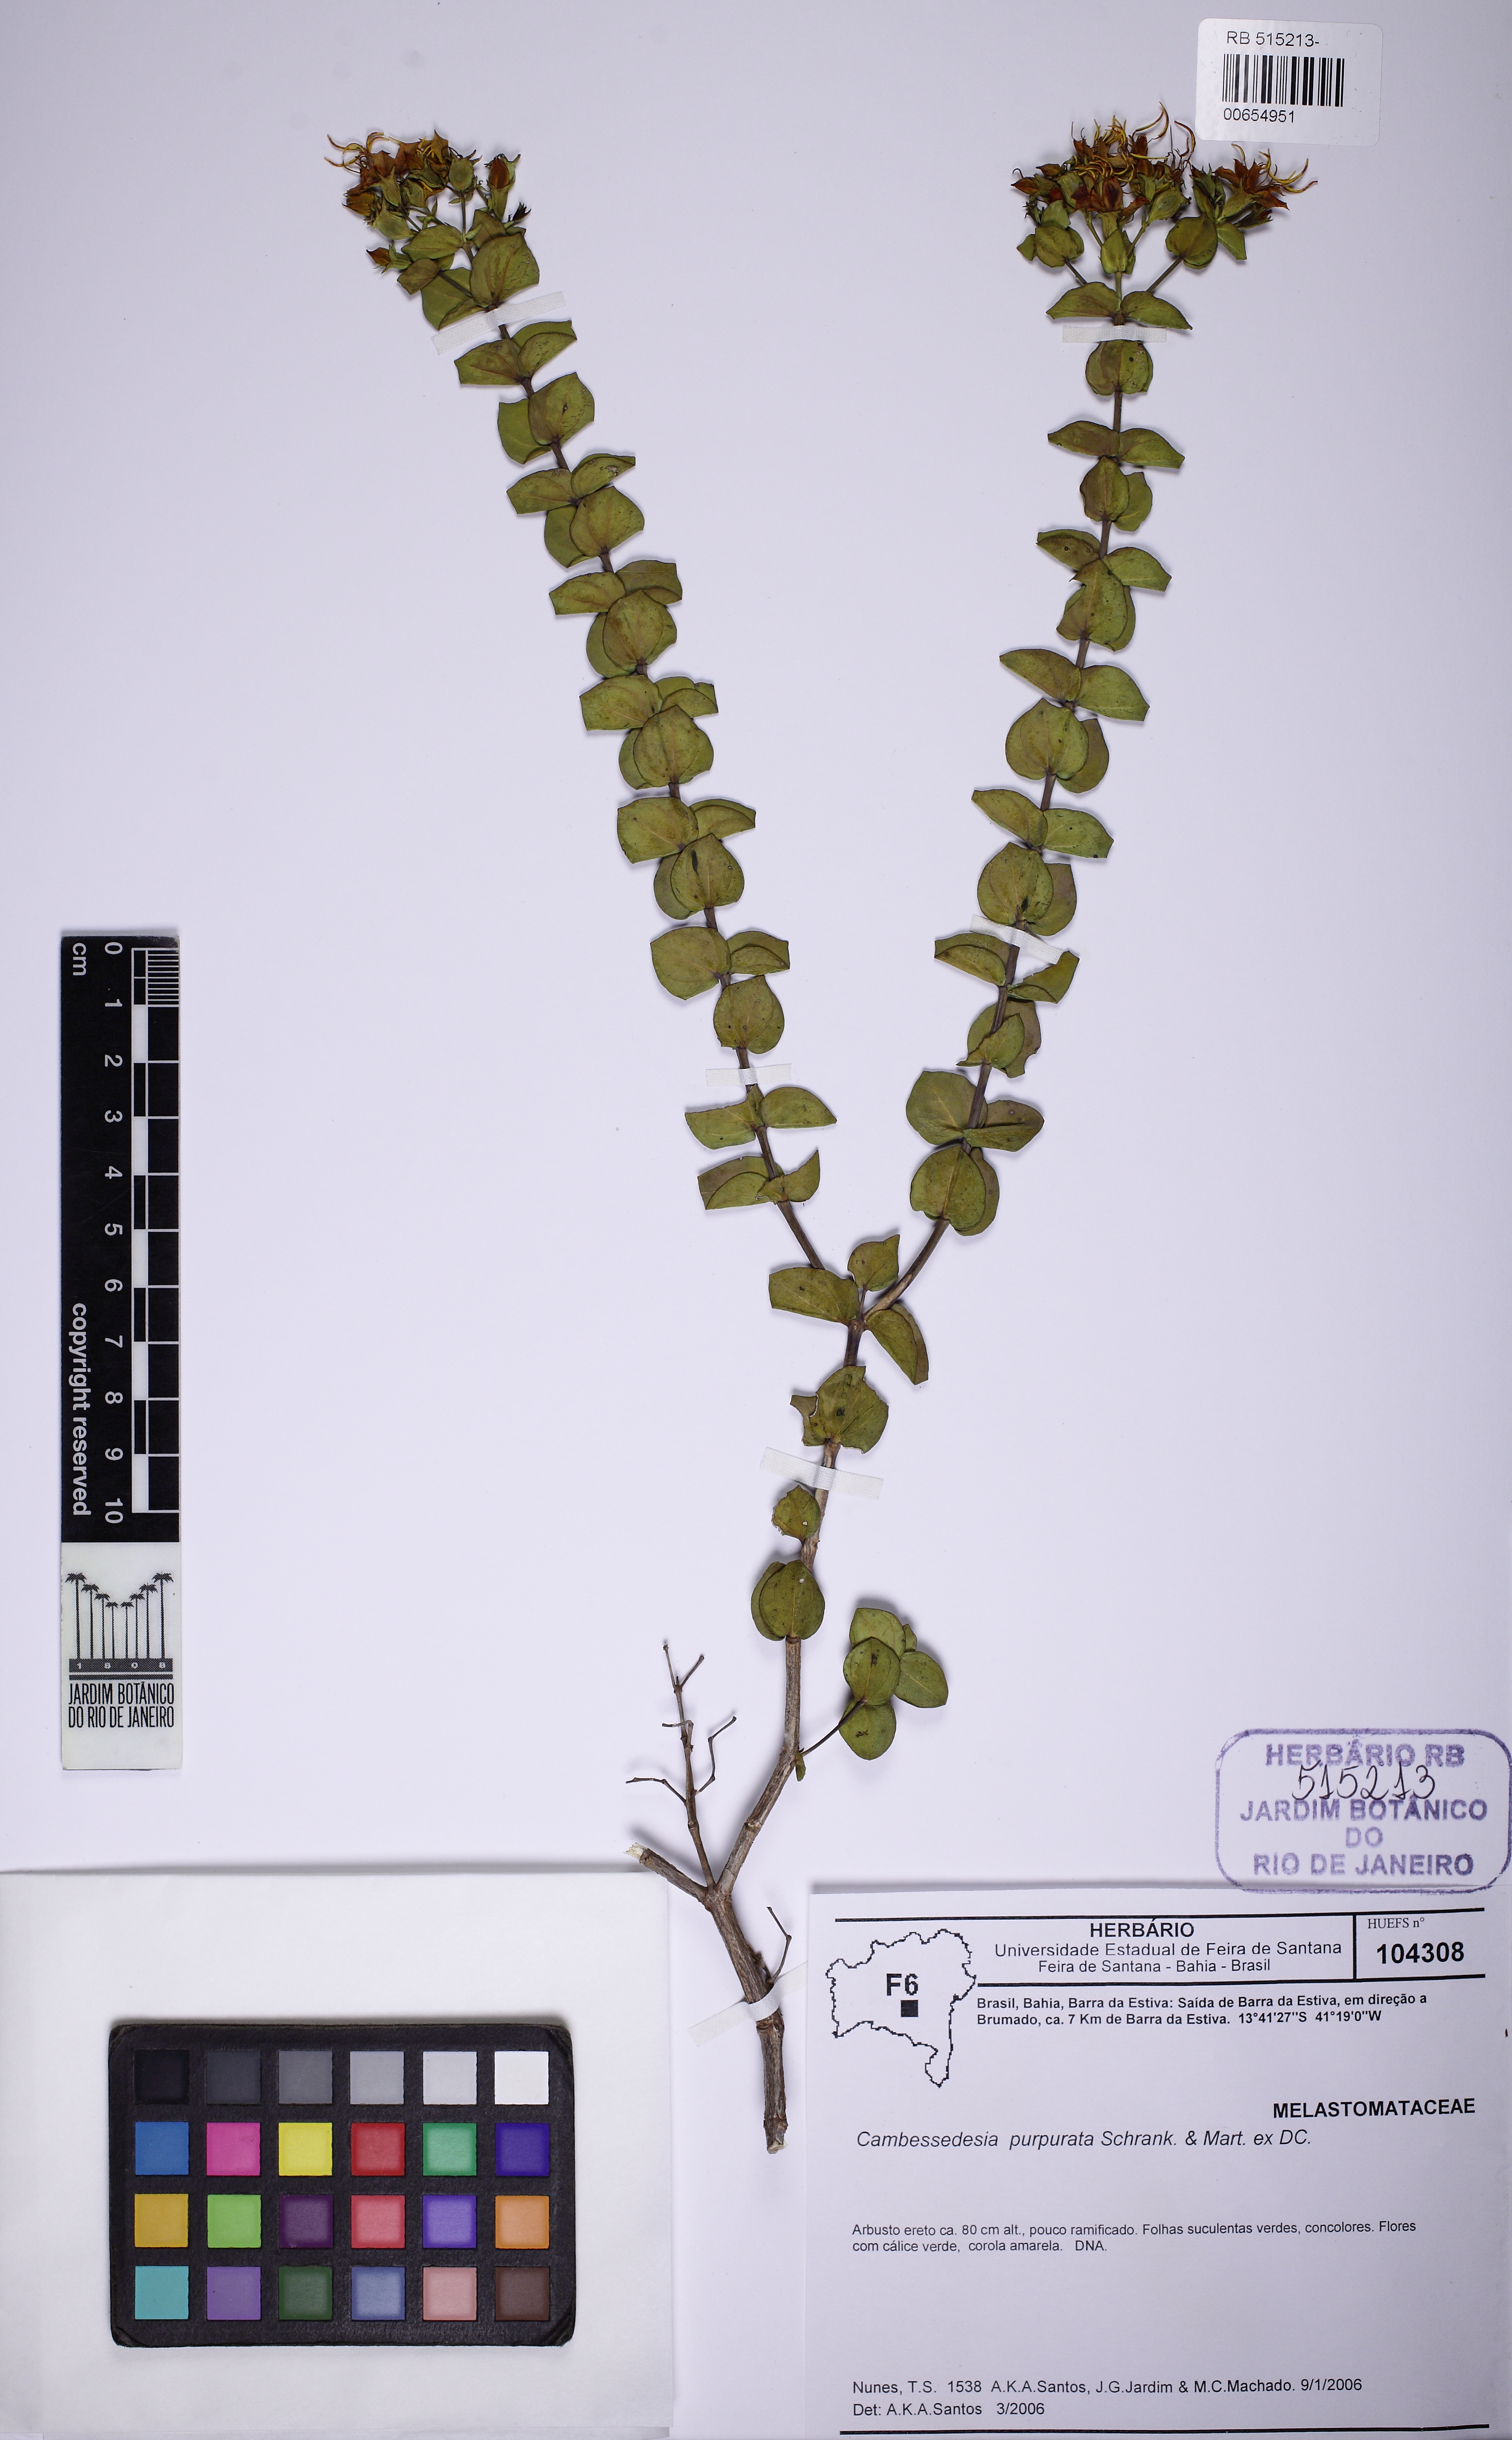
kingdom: Plantae
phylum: Tracheophyta
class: Magnoliopsida
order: Myrtales
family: Melastomataceae
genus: Cambessedesia
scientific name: Cambessedesia purpurata
